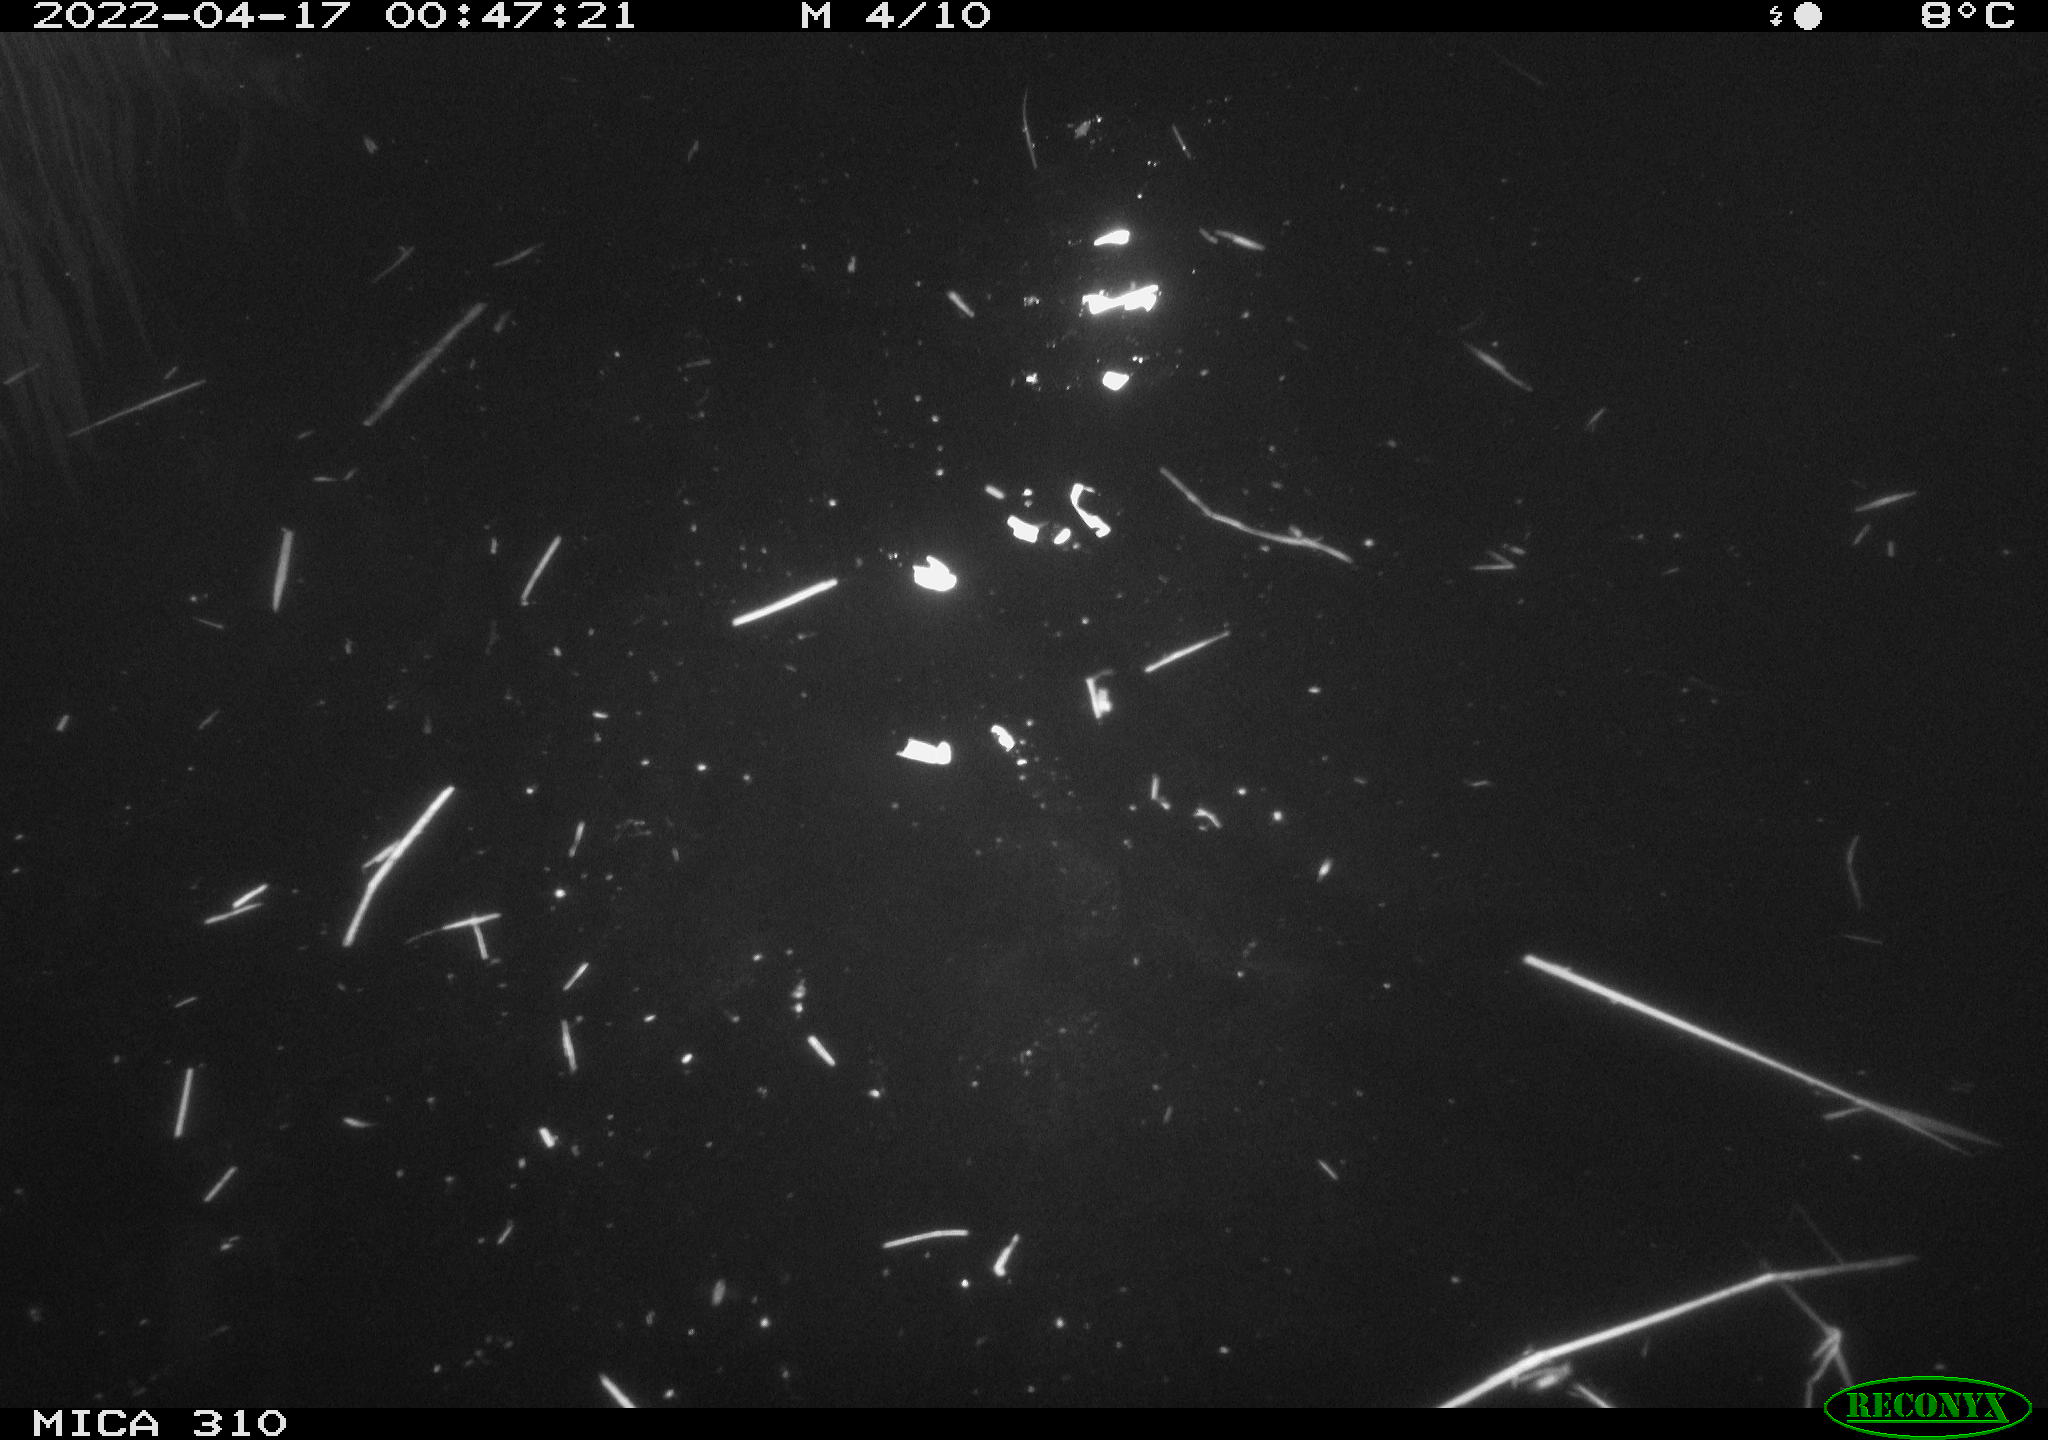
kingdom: Animalia
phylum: Chordata
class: Aves
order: Anseriformes
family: Anatidae
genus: Anas
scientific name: Anas platyrhynchos
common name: Mallard
